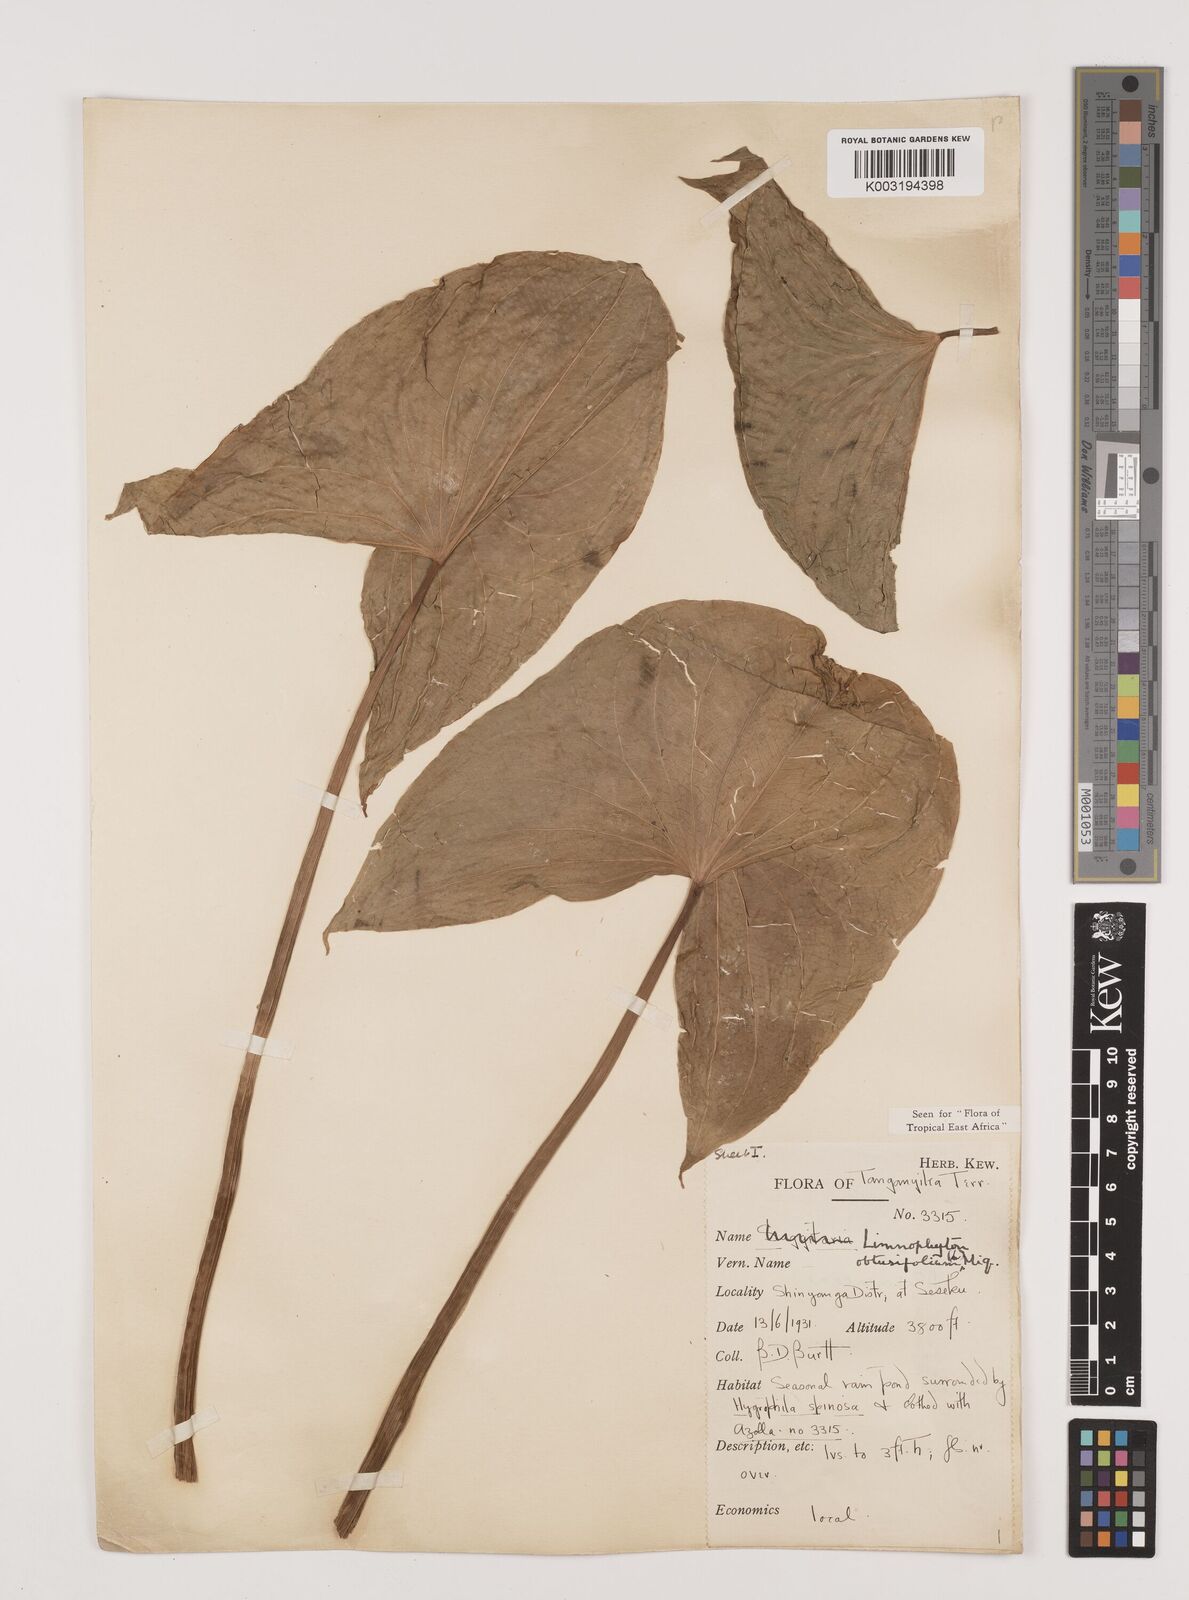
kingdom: Plantae
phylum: Tracheophyta
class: Liliopsida
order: Alismatales
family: Alismataceae
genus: Limnophyton
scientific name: Limnophyton obtusifolium
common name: Arrow head
